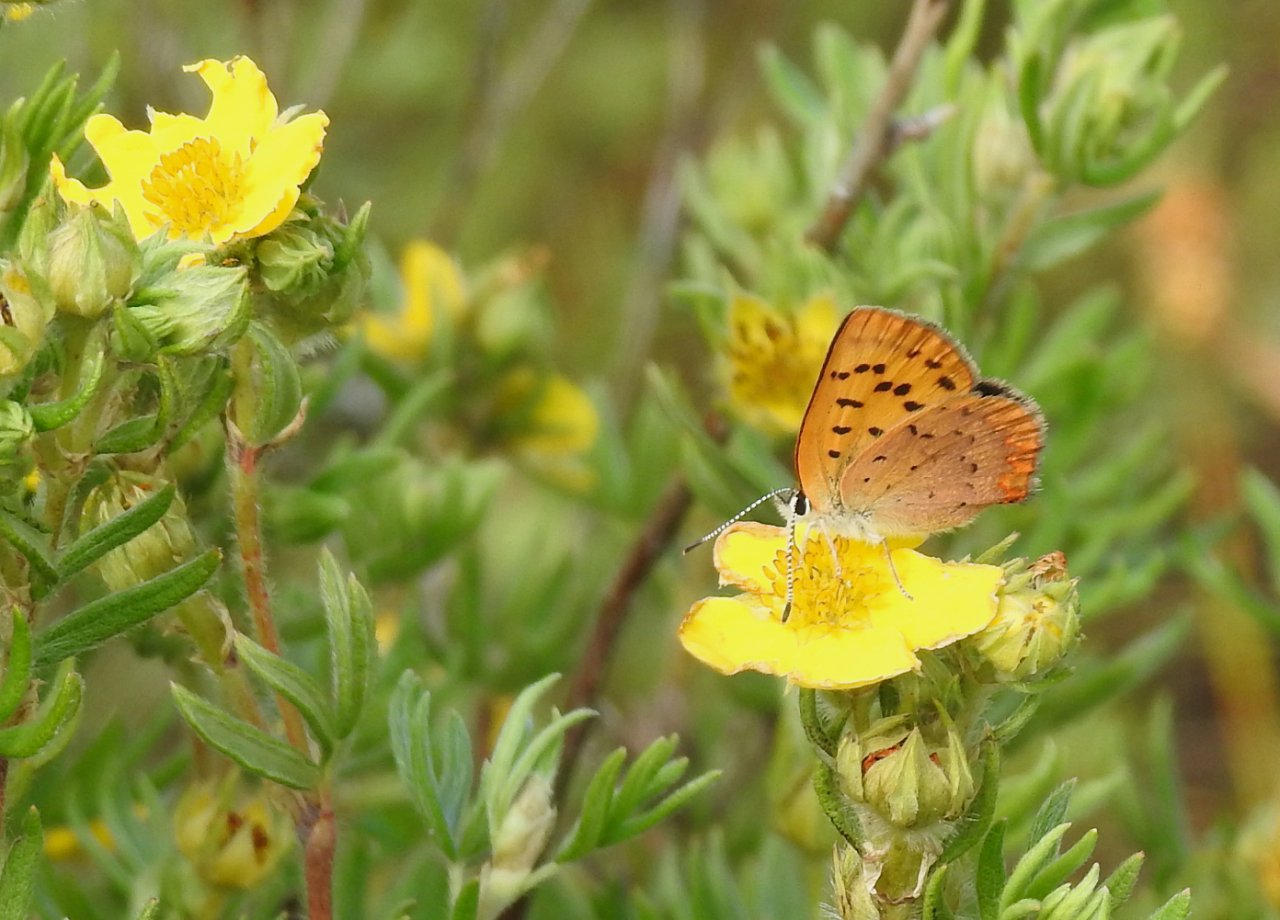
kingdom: Animalia
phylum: Arthropoda
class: Insecta
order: Lepidoptera
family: Lycaenidae
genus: Epidemia
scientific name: Epidemia dorcas
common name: Dorcas Copper
